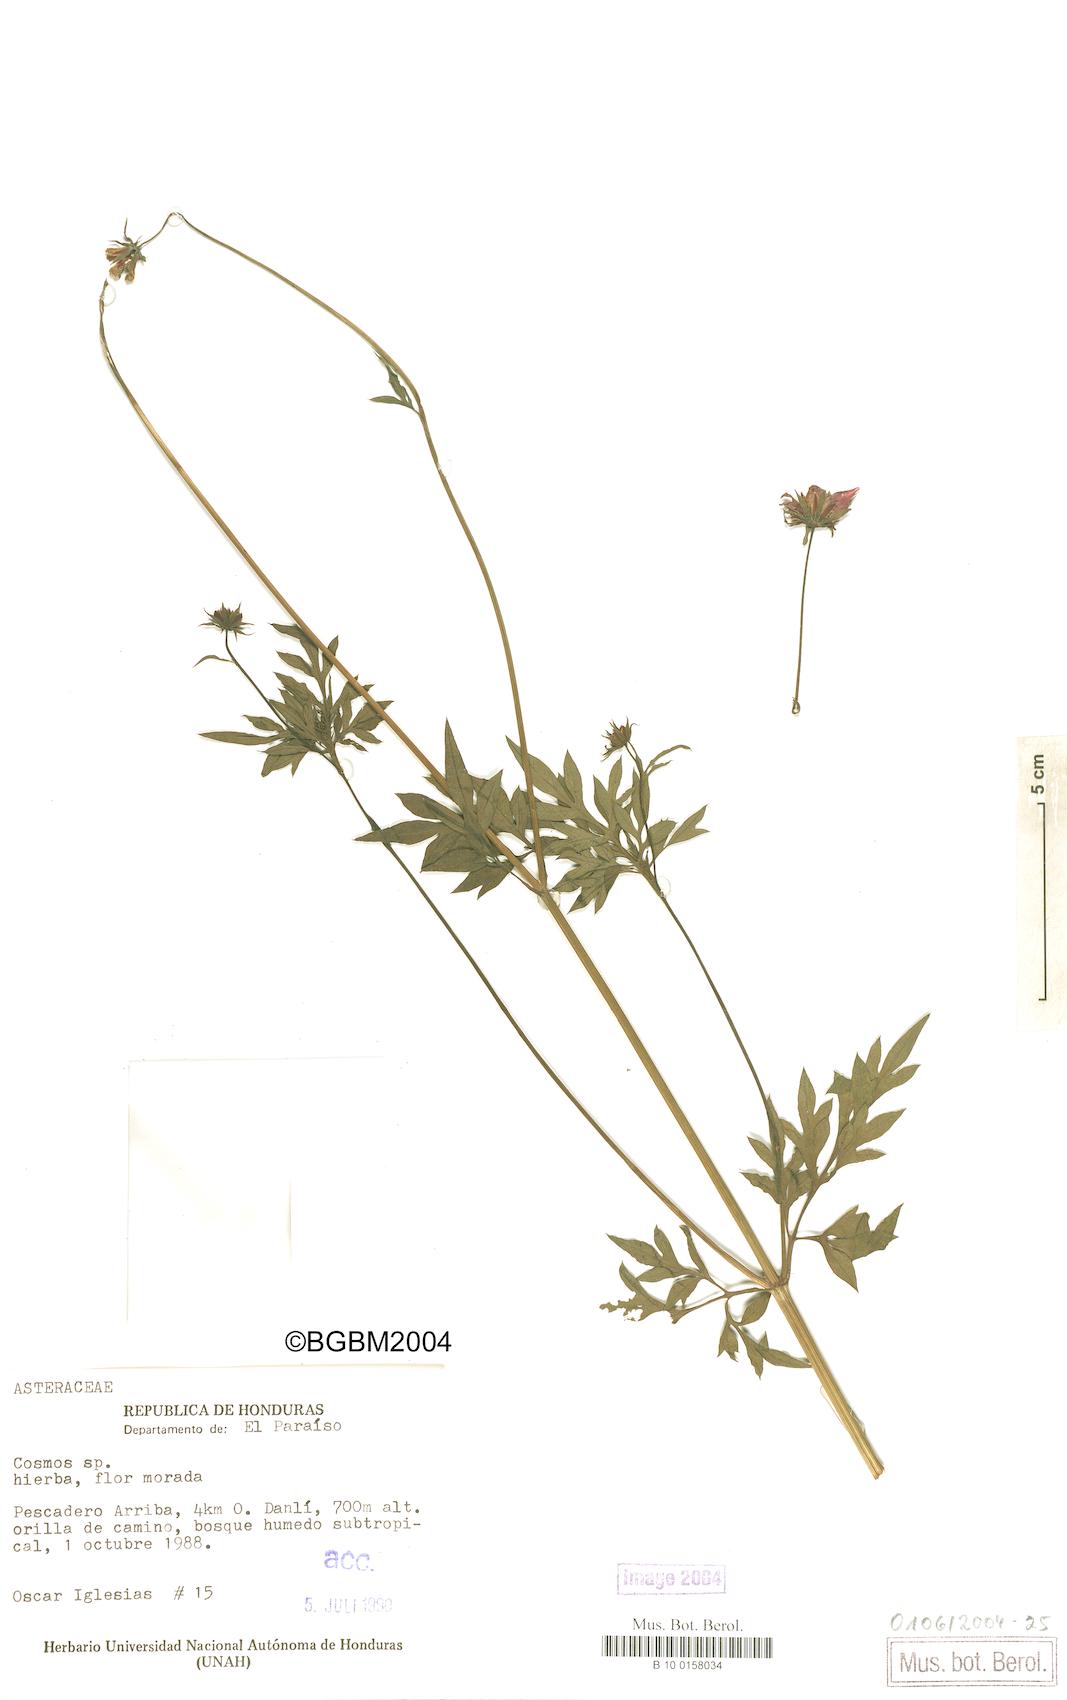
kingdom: Plantae
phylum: Tracheophyta
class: Magnoliopsida
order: Asterales
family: Asteraceae
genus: Cosmos
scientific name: Cosmos
